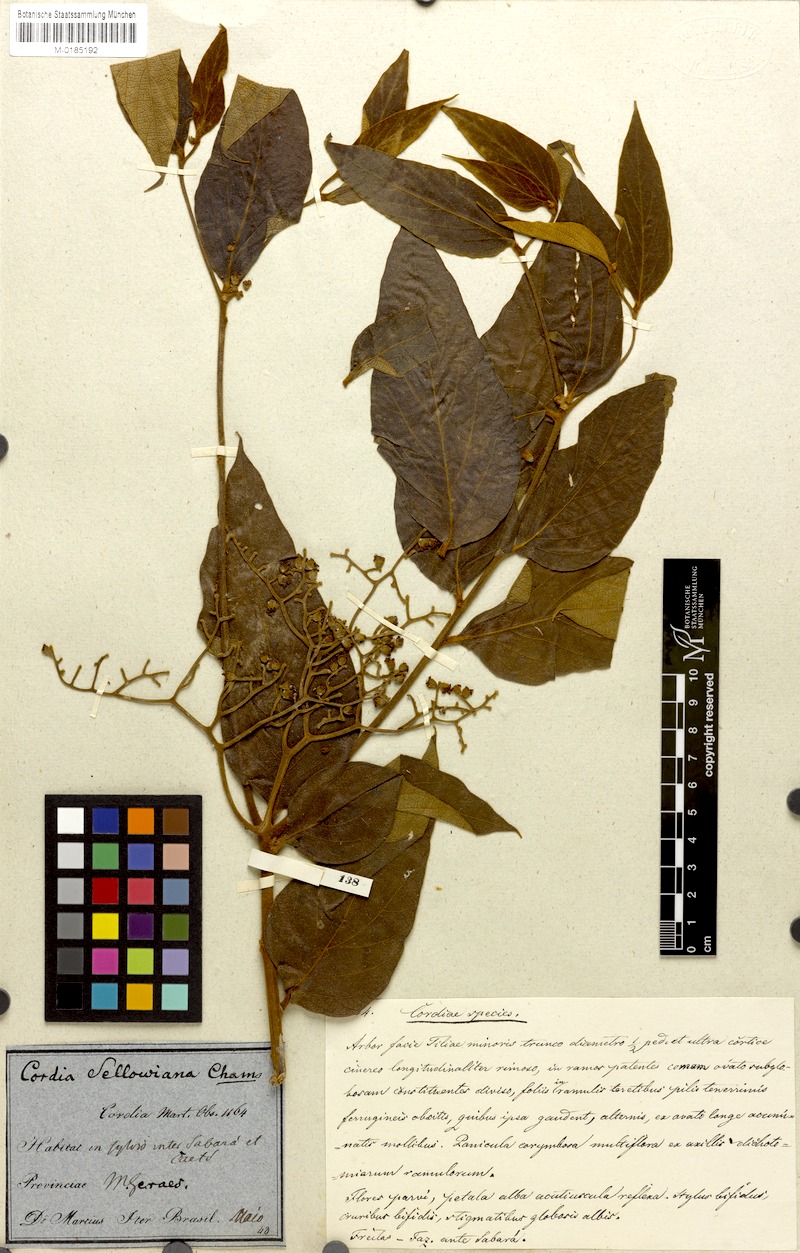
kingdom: Plantae
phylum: Tracheophyta
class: Magnoliopsida
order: Boraginales
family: Cordiaceae
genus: Cordia
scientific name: Cordia sellowiana
